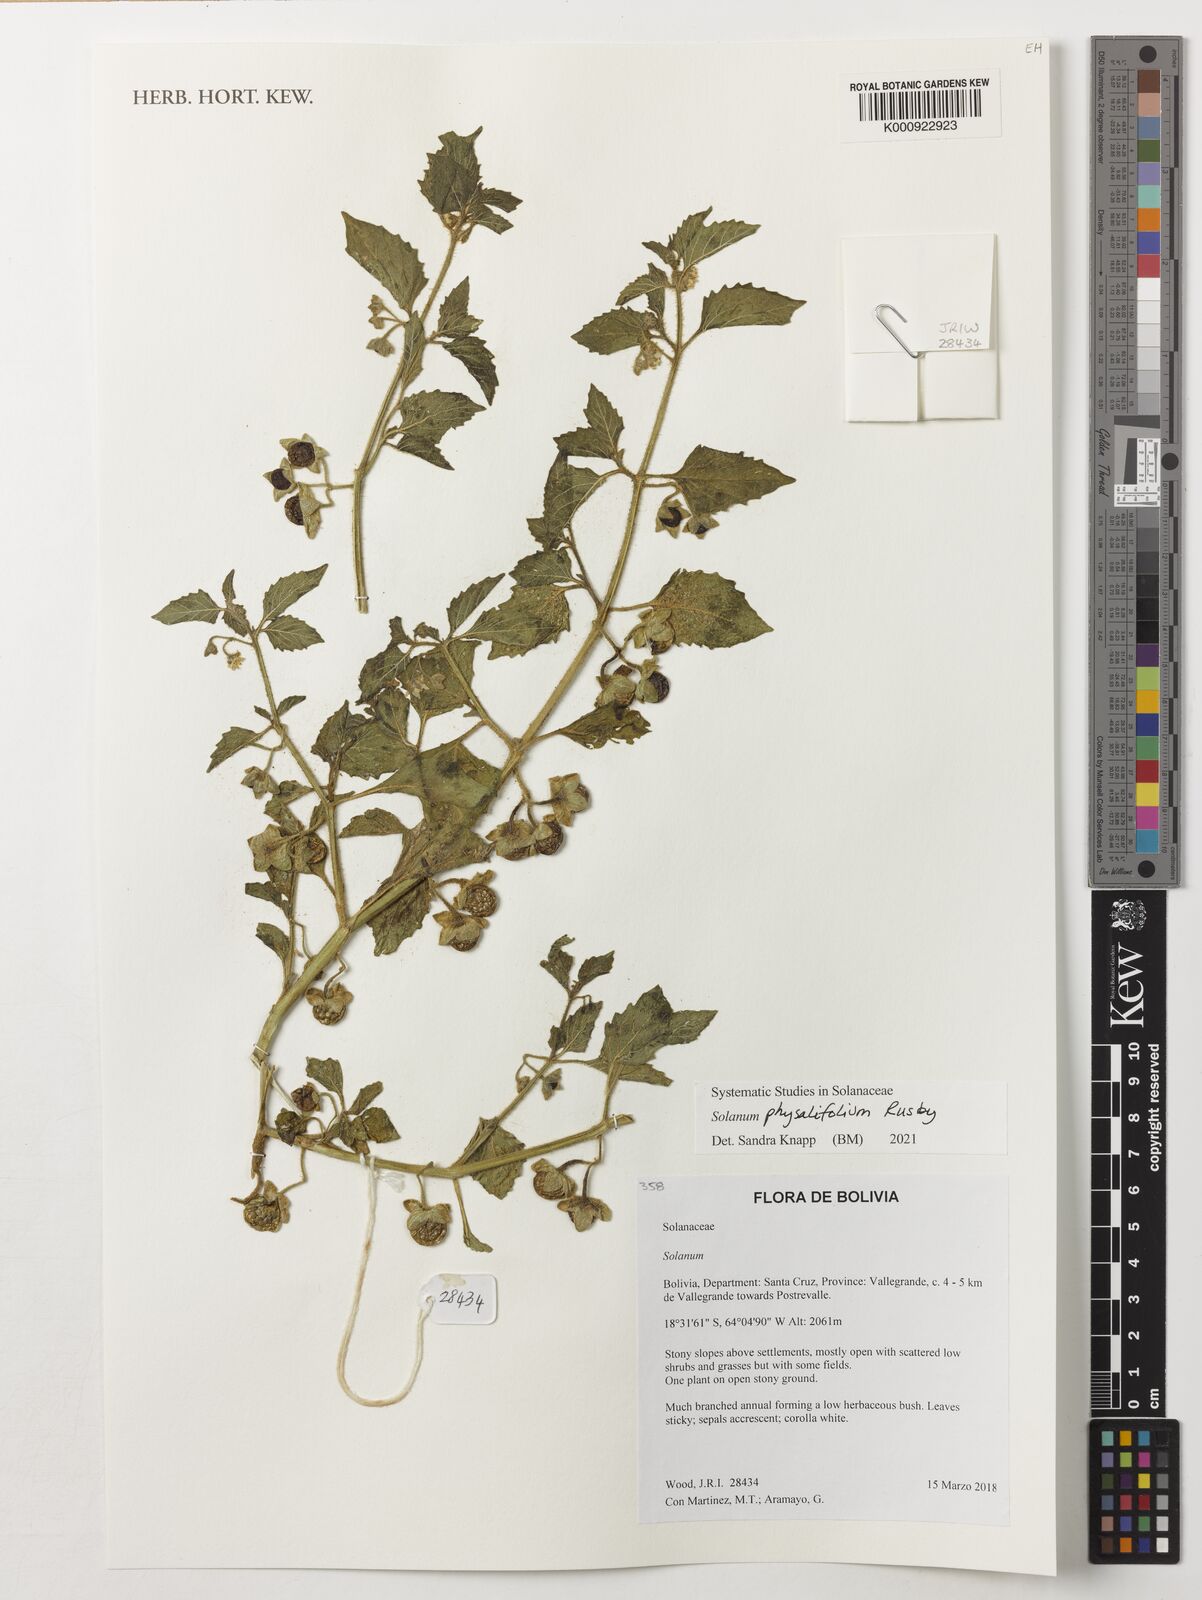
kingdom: Plantae
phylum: Tracheophyta
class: Magnoliopsida
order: Solanales
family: Solanaceae
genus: Solanum
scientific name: Solanum physalifolium
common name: Green nightshade
